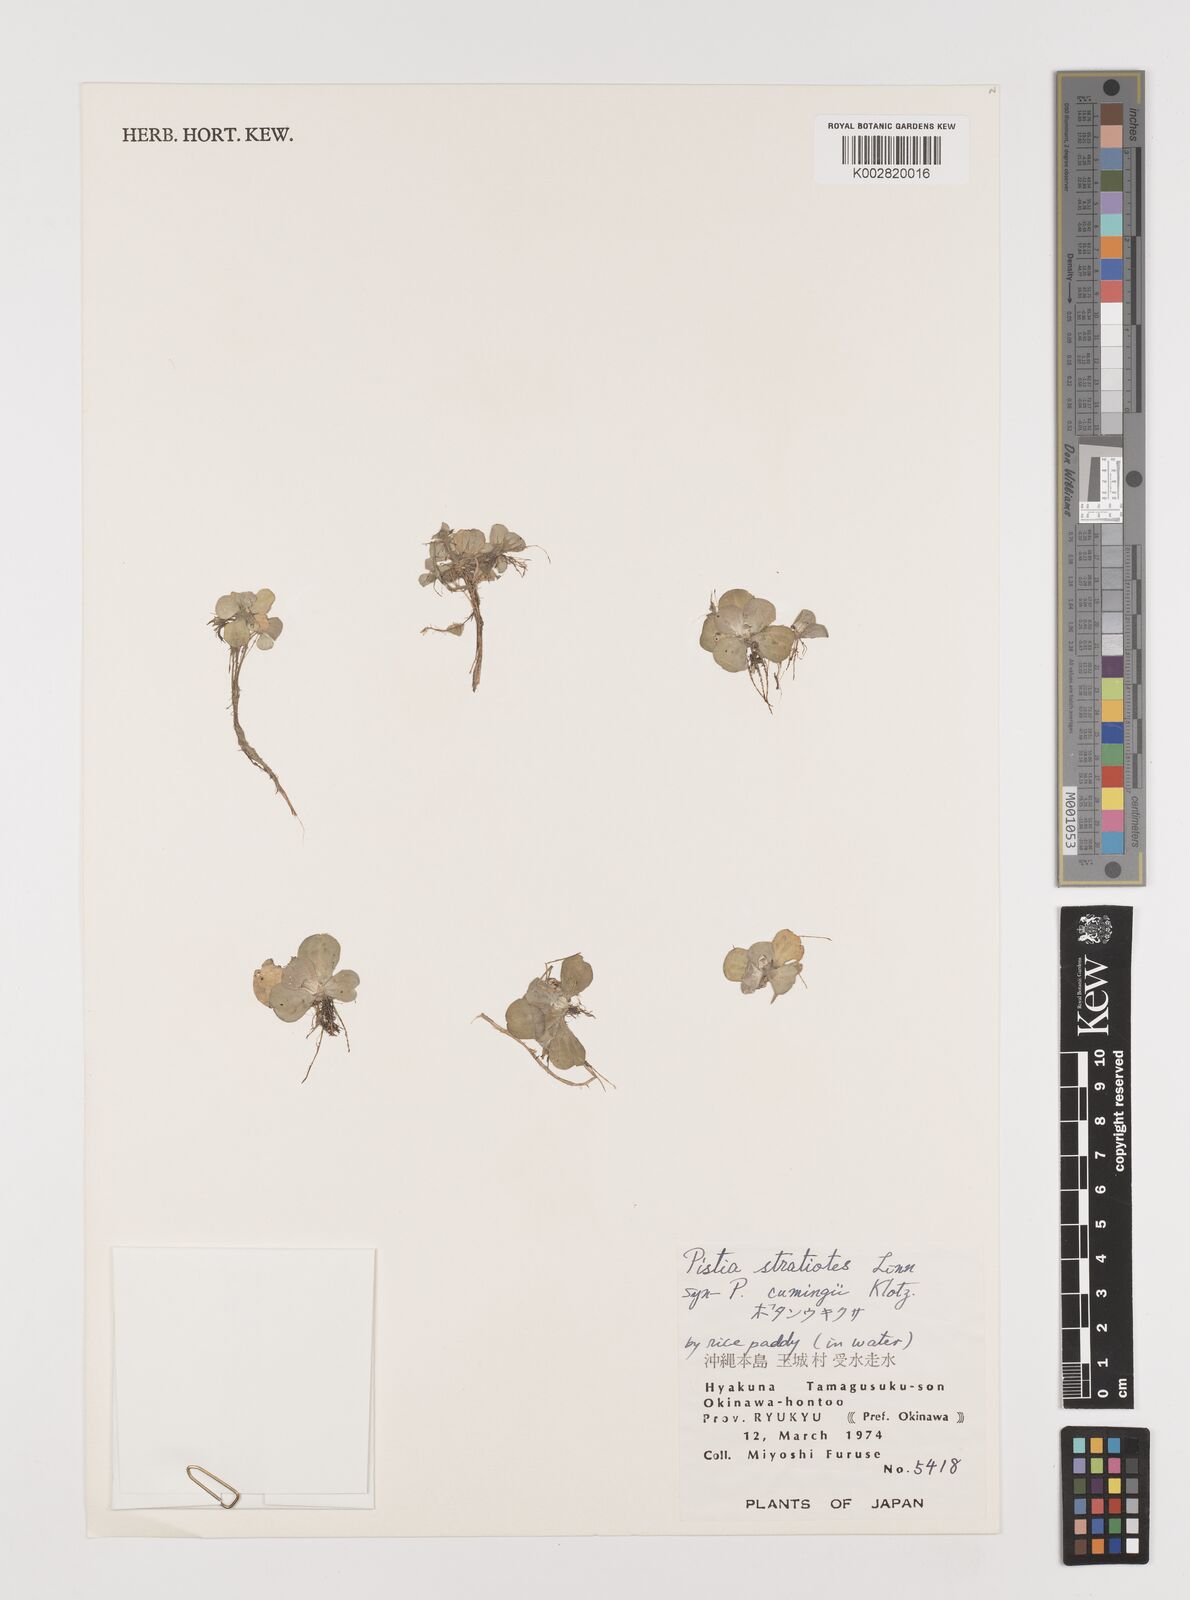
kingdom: Plantae
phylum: Tracheophyta
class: Liliopsida
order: Alismatales
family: Araceae
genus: Pistia
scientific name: Pistia stratiotes
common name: Water lettuce
